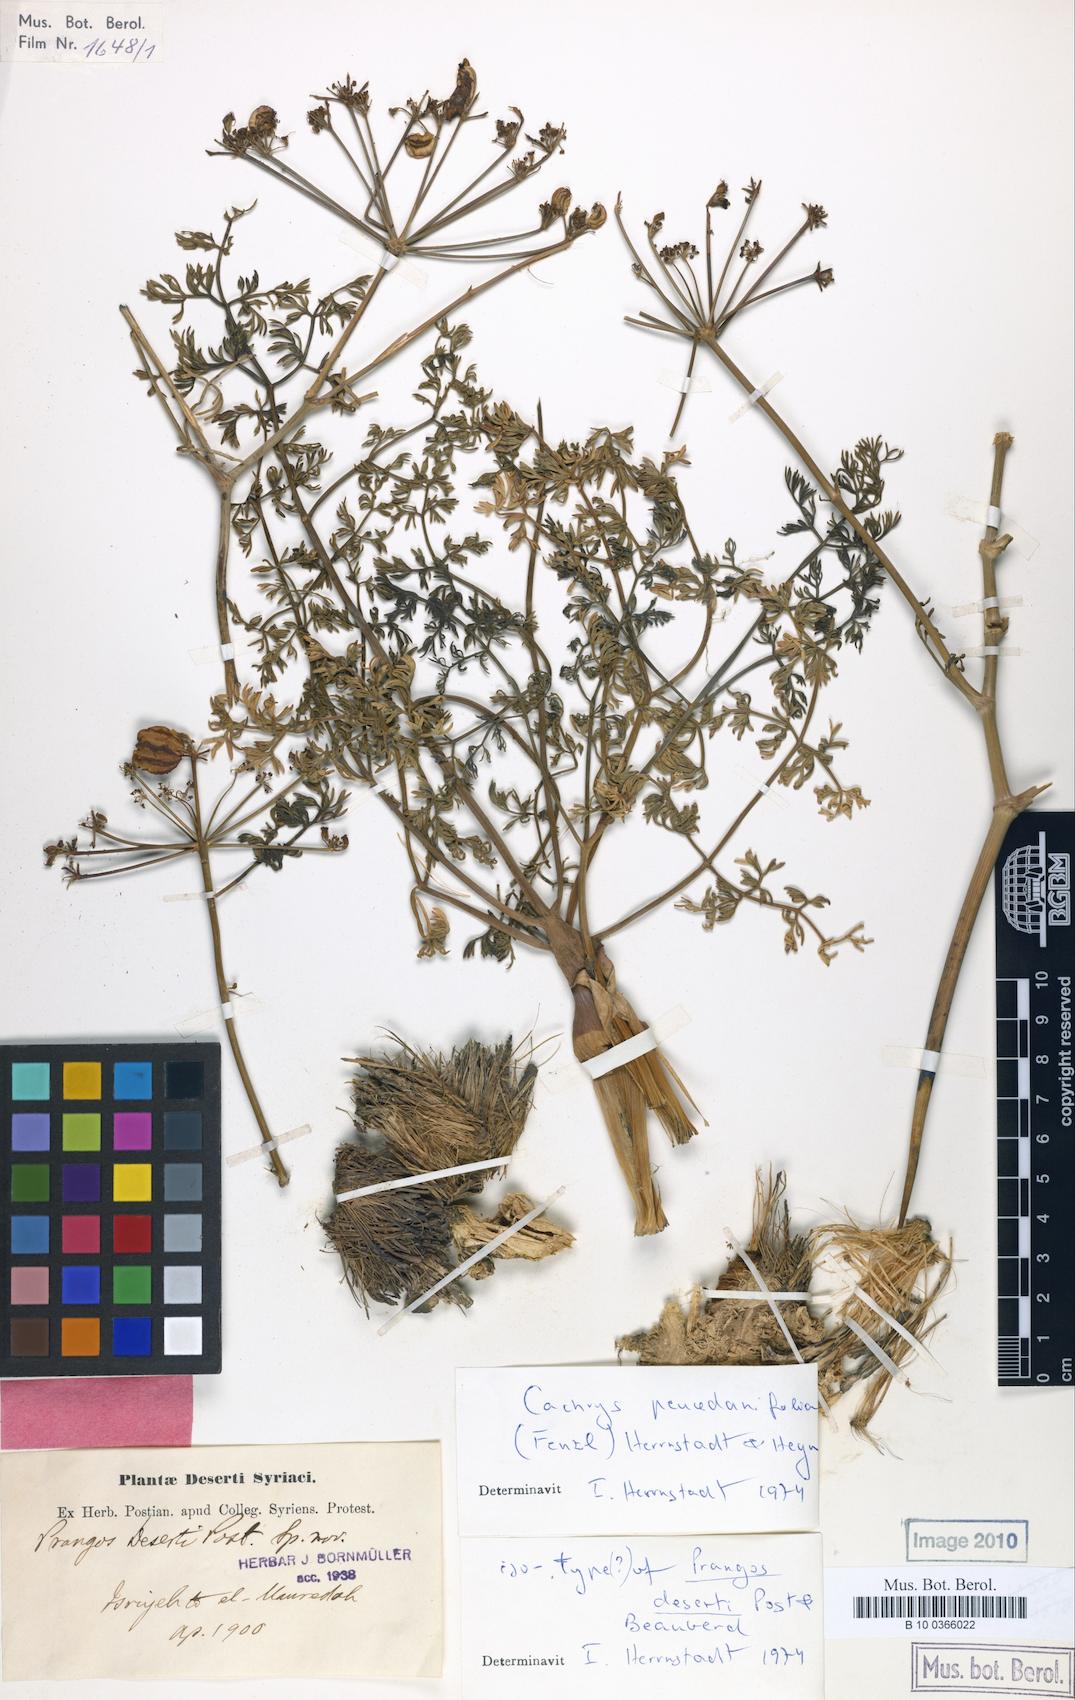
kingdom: Plantae
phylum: Tracheophyta
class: Magnoliopsida
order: Apiales
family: Apiaceae
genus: Prangos
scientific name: Prangos peucedanifolia
